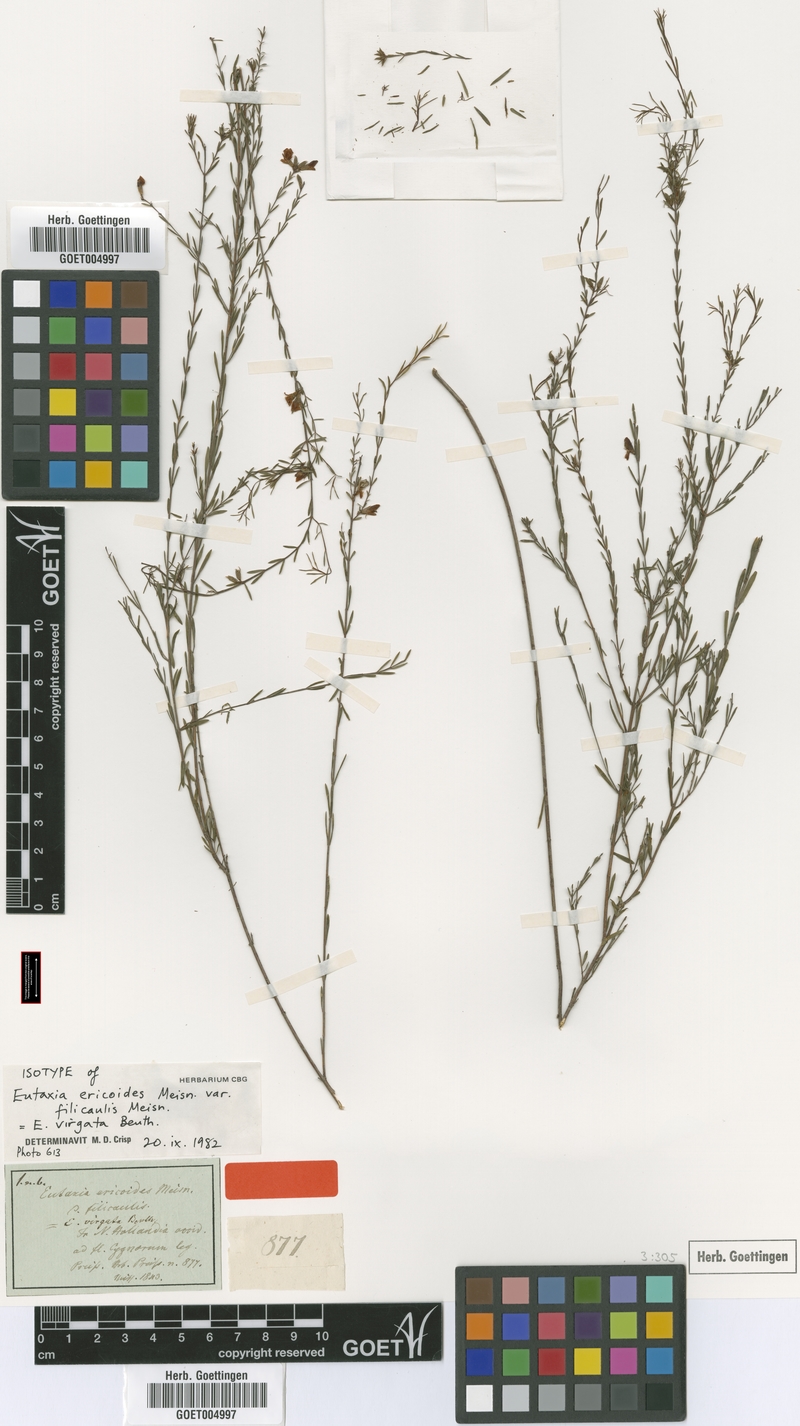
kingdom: Plantae
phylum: Tracheophyta
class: Magnoliopsida
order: Fabales
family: Fabaceae
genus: Eutaxia
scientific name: Eutaxia virgata
